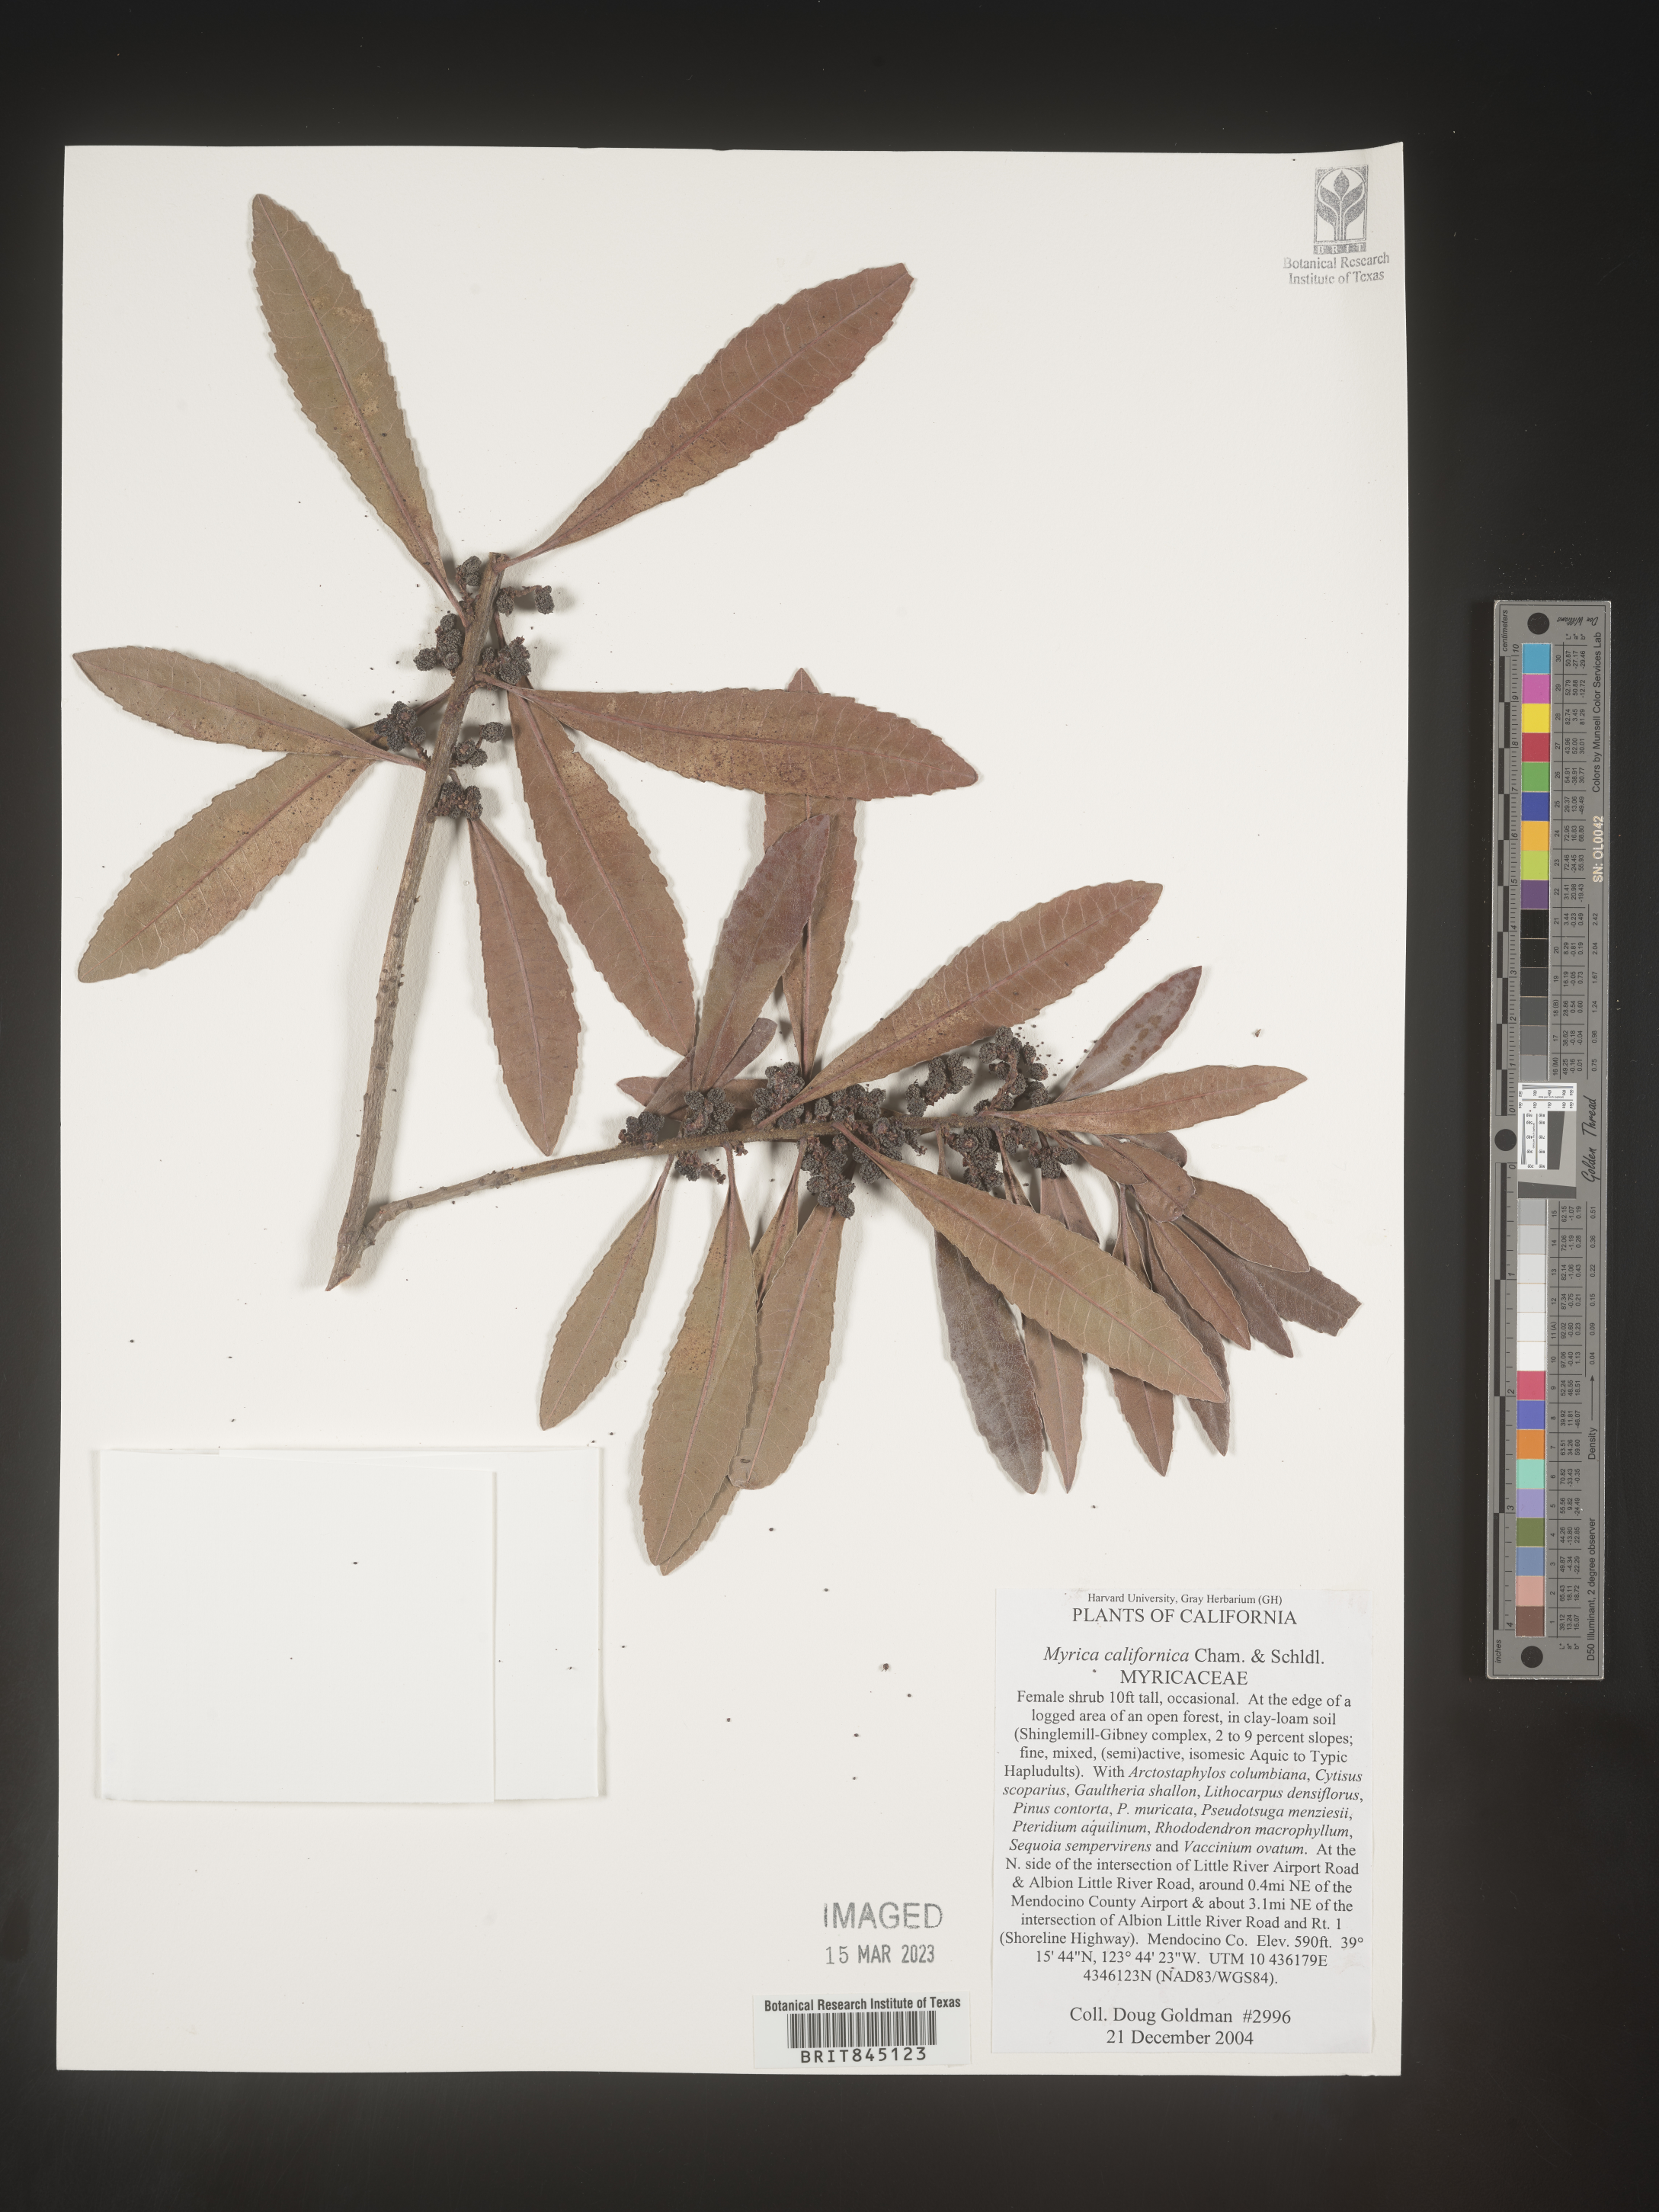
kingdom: Plantae
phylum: Tracheophyta
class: Magnoliopsida
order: Fagales
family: Myricaceae
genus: Morella
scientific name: Morella californica
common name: California wax-myrtle
